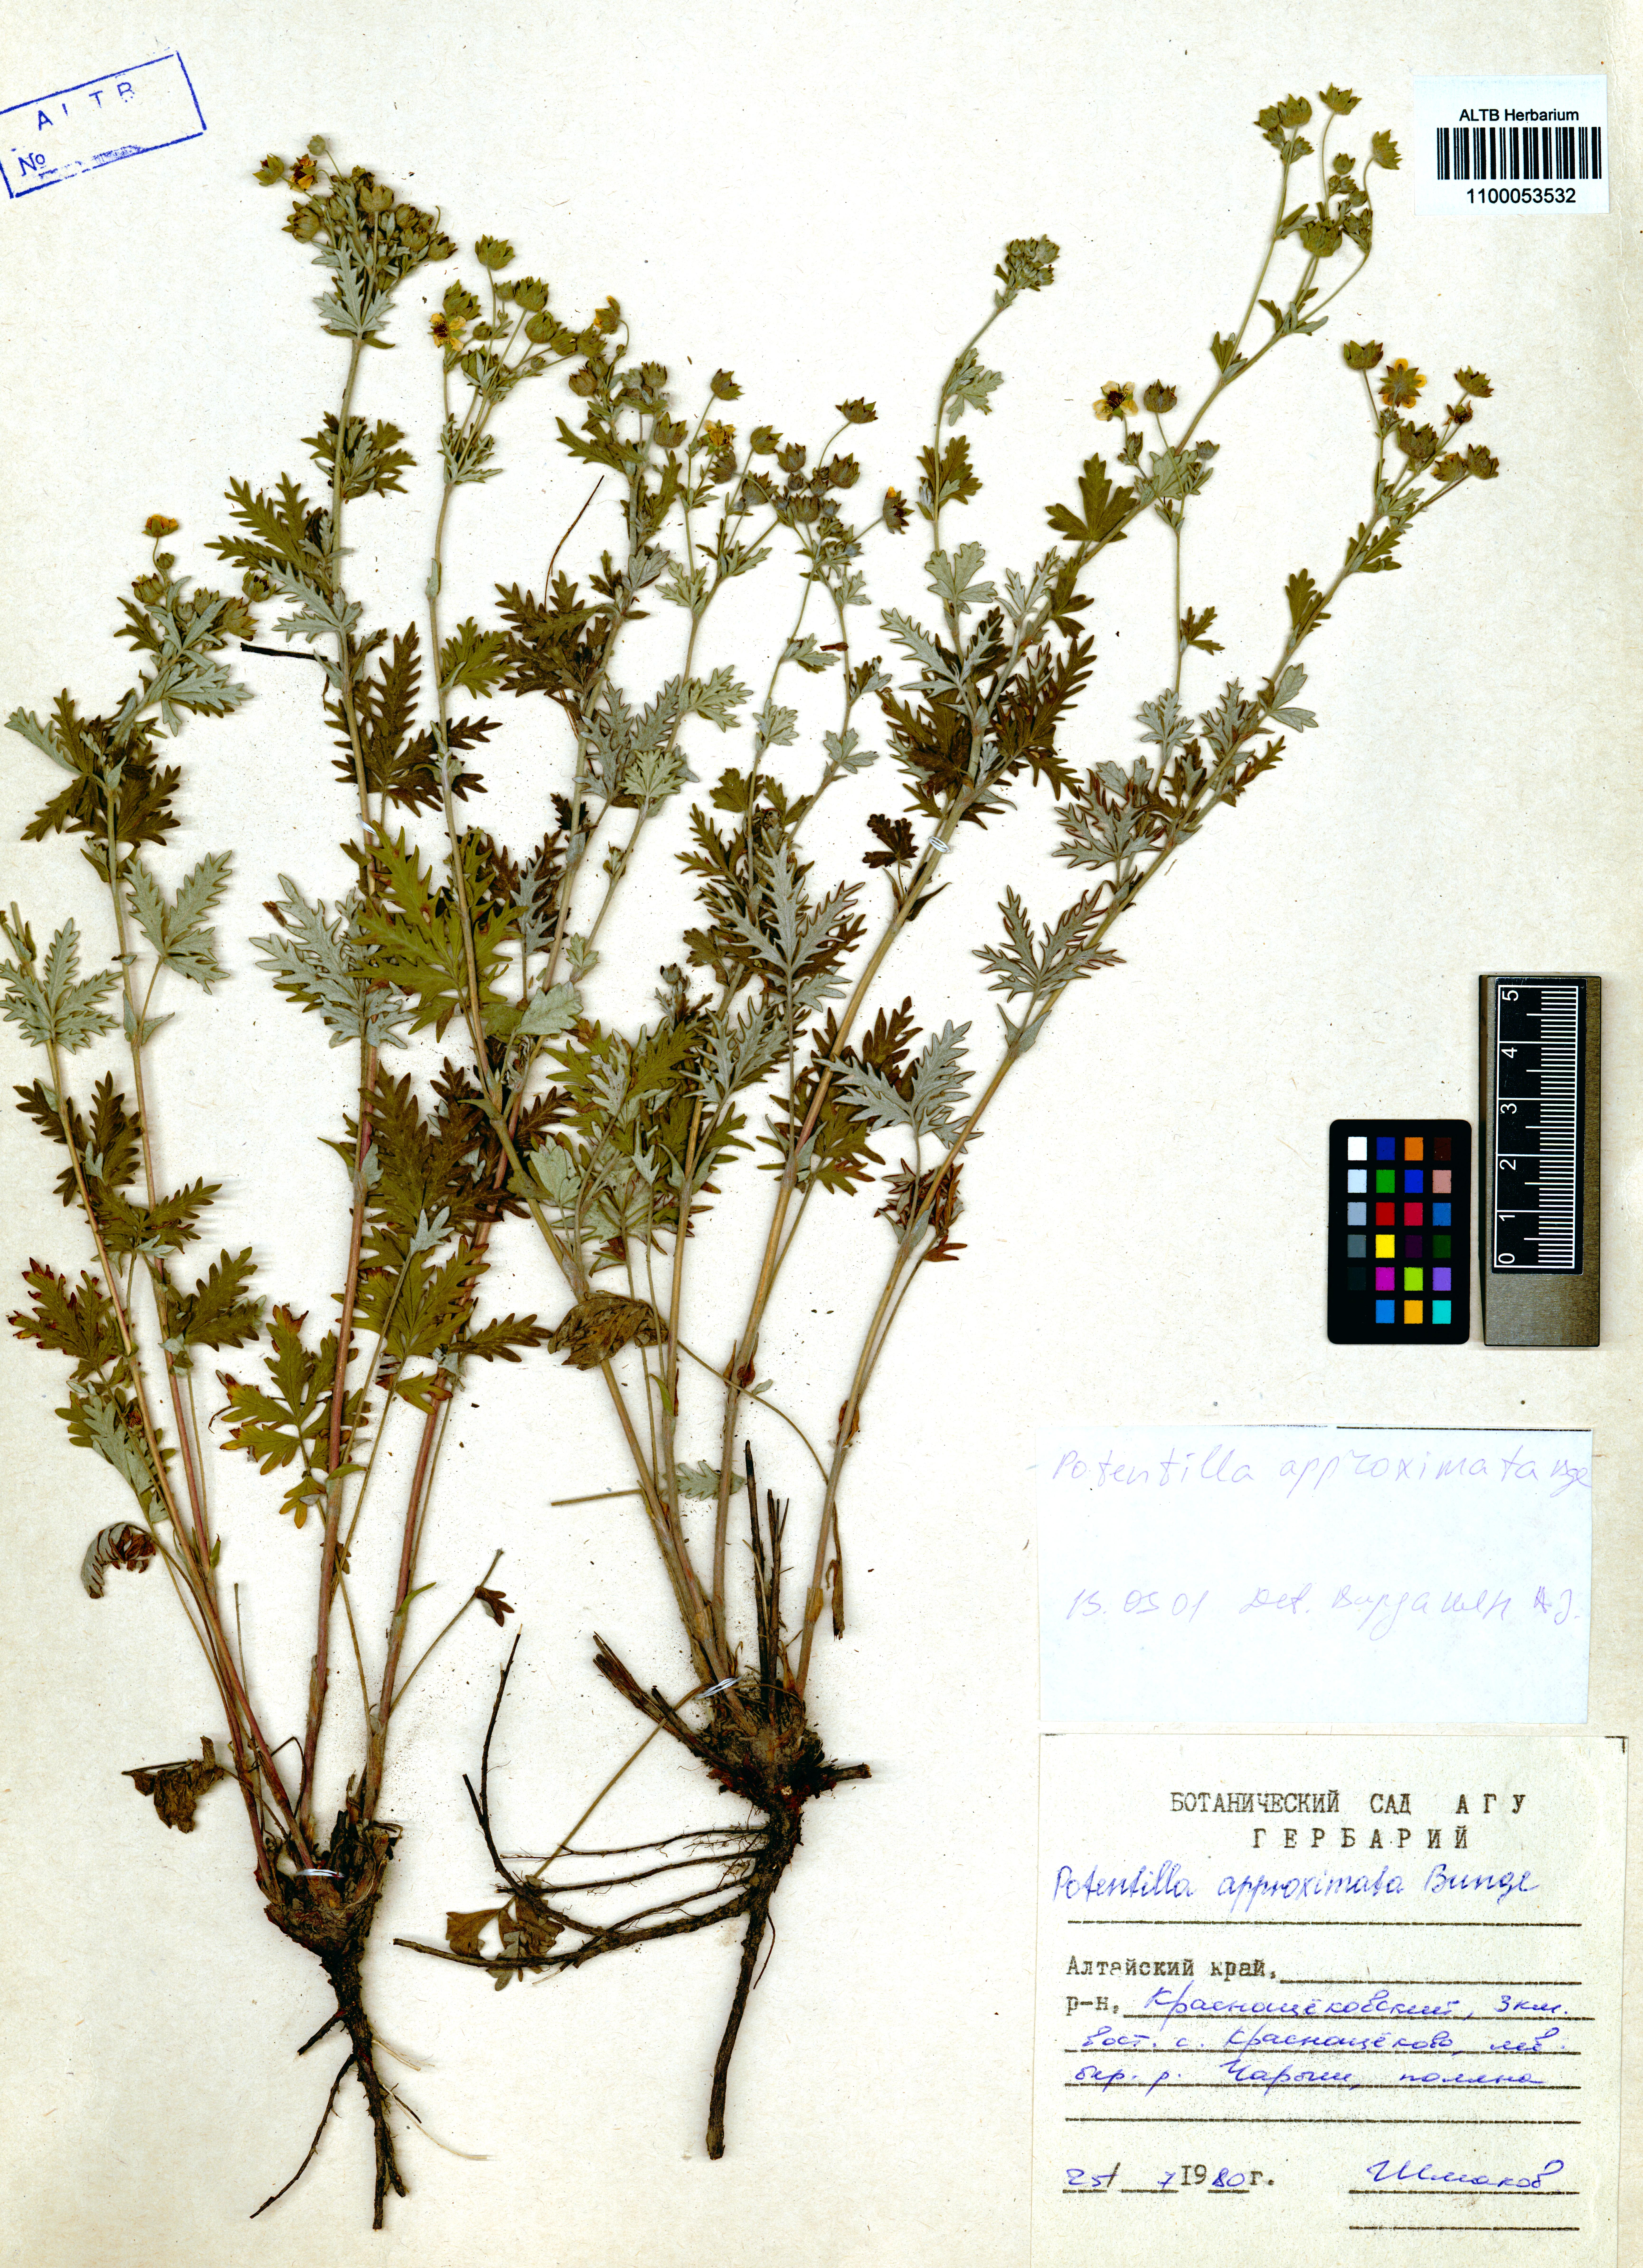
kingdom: Plantae
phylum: Tracheophyta
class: Magnoliopsida
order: Rosales
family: Rosaceae
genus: Potentilla
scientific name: Potentilla conferta
